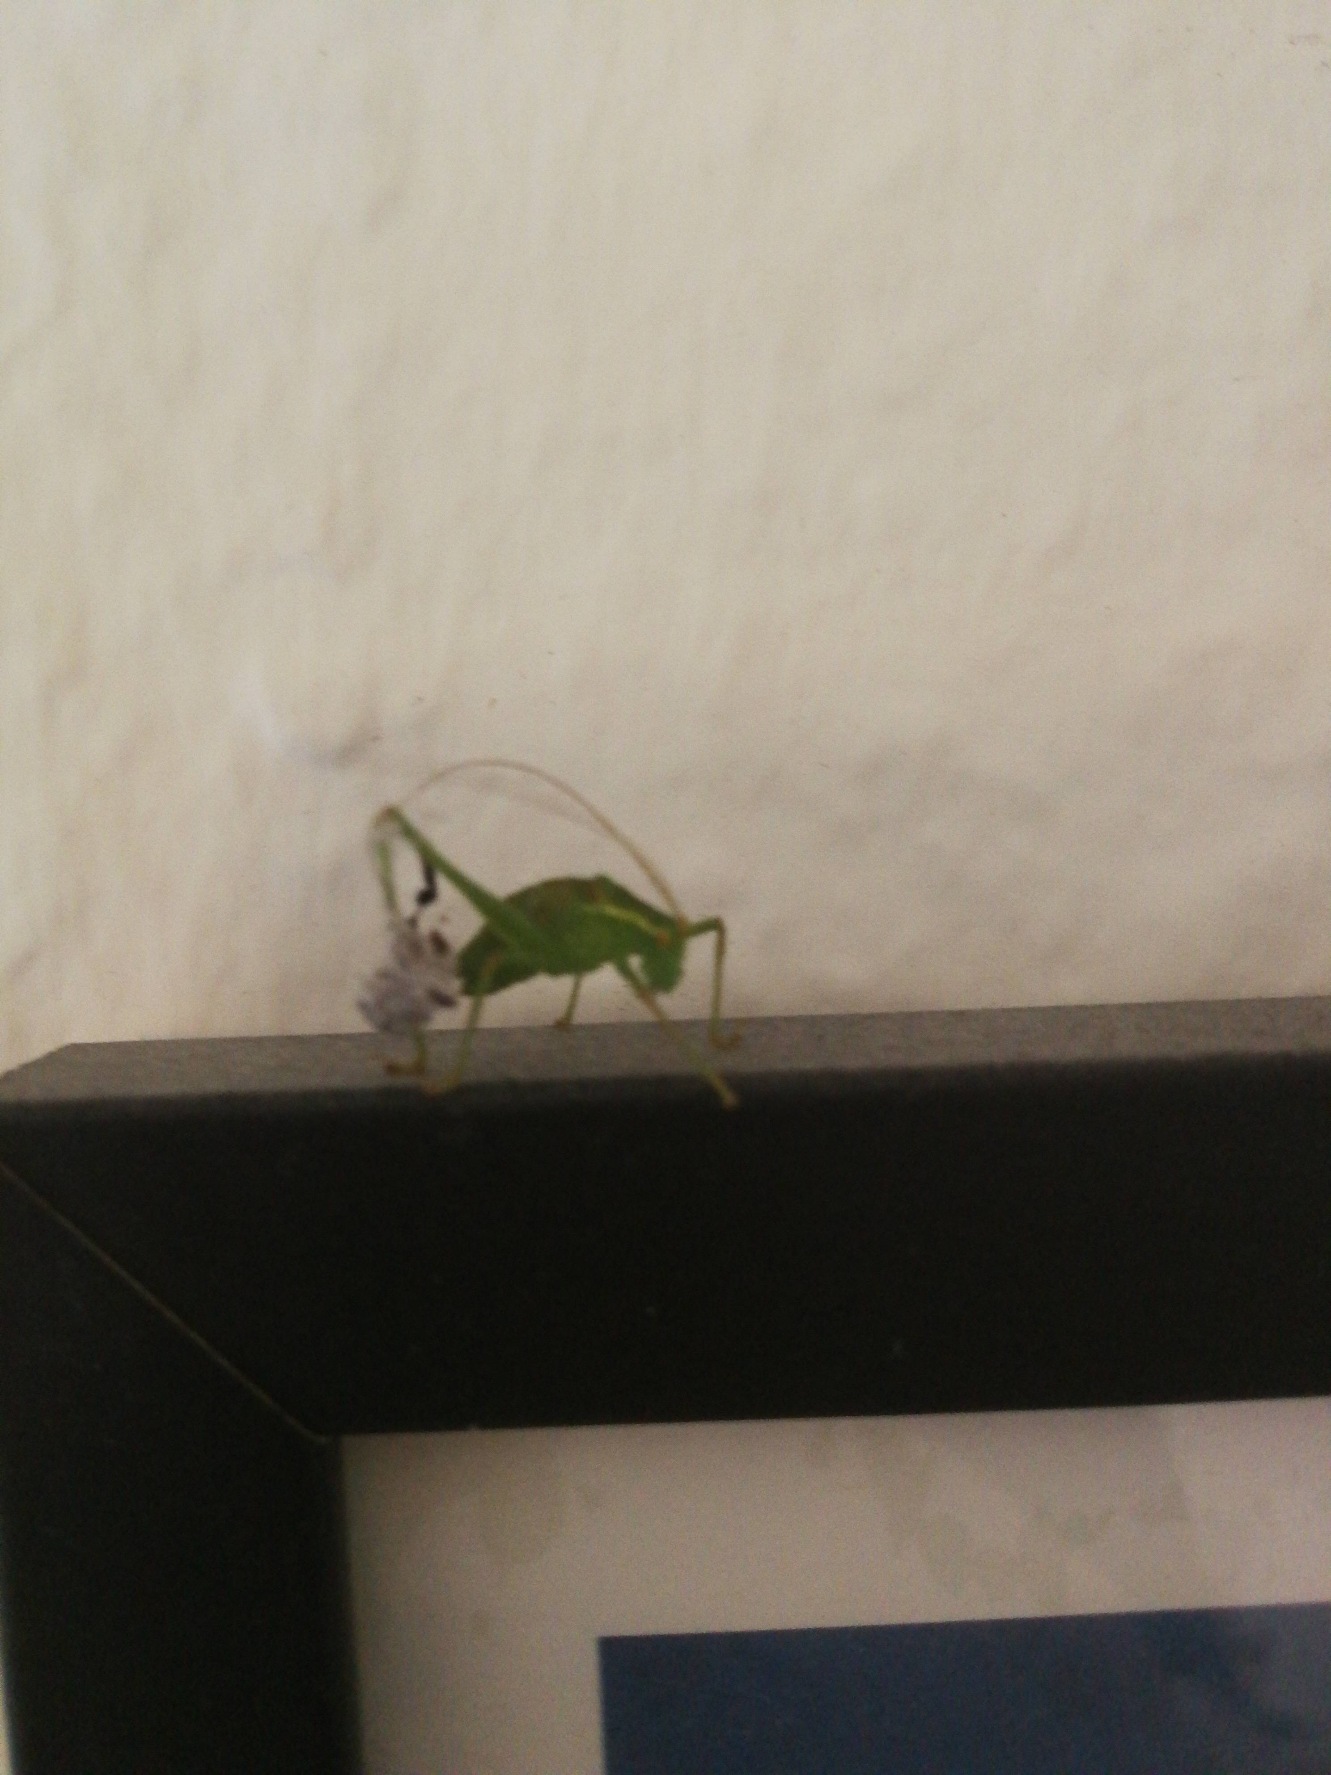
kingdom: Animalia
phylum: Arthropoda
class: Insecta
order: Orthoptera
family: Tettigoniidae
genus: Leptophyes
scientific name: Leptophyes punctatissima
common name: Krumknivgræshoppe
